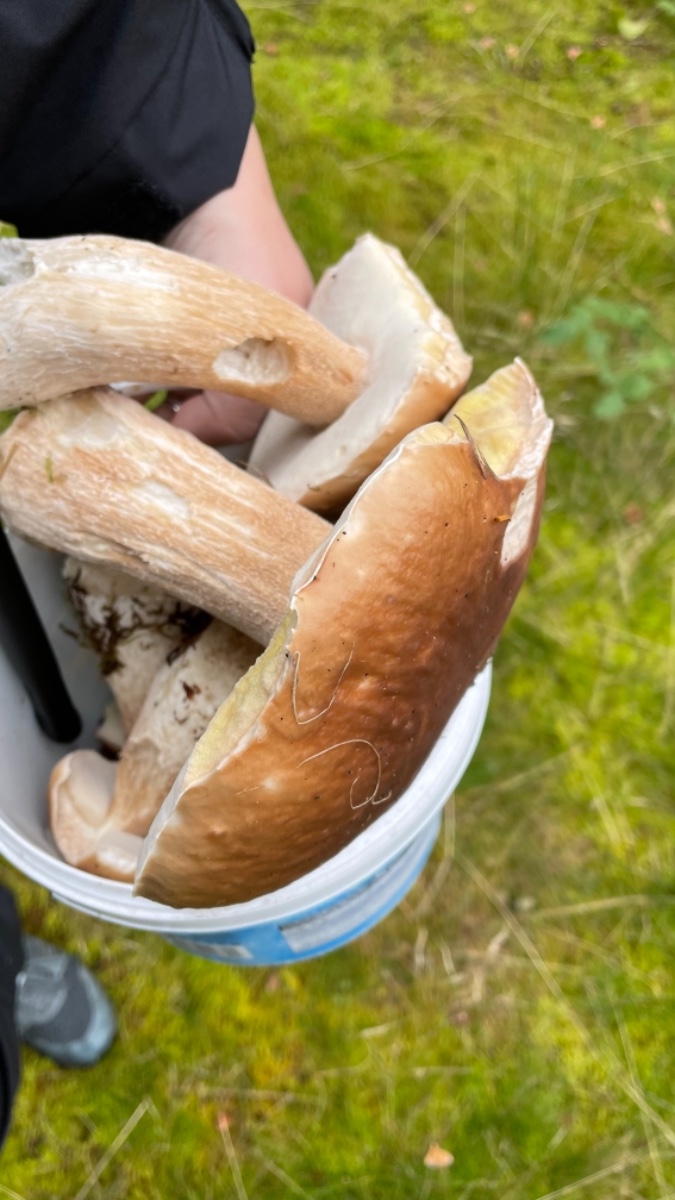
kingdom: Fungi
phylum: Basidiomycota
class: Agaricomycetes
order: Boletales
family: Boletaceae
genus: Boletus
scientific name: Boletus edulis
